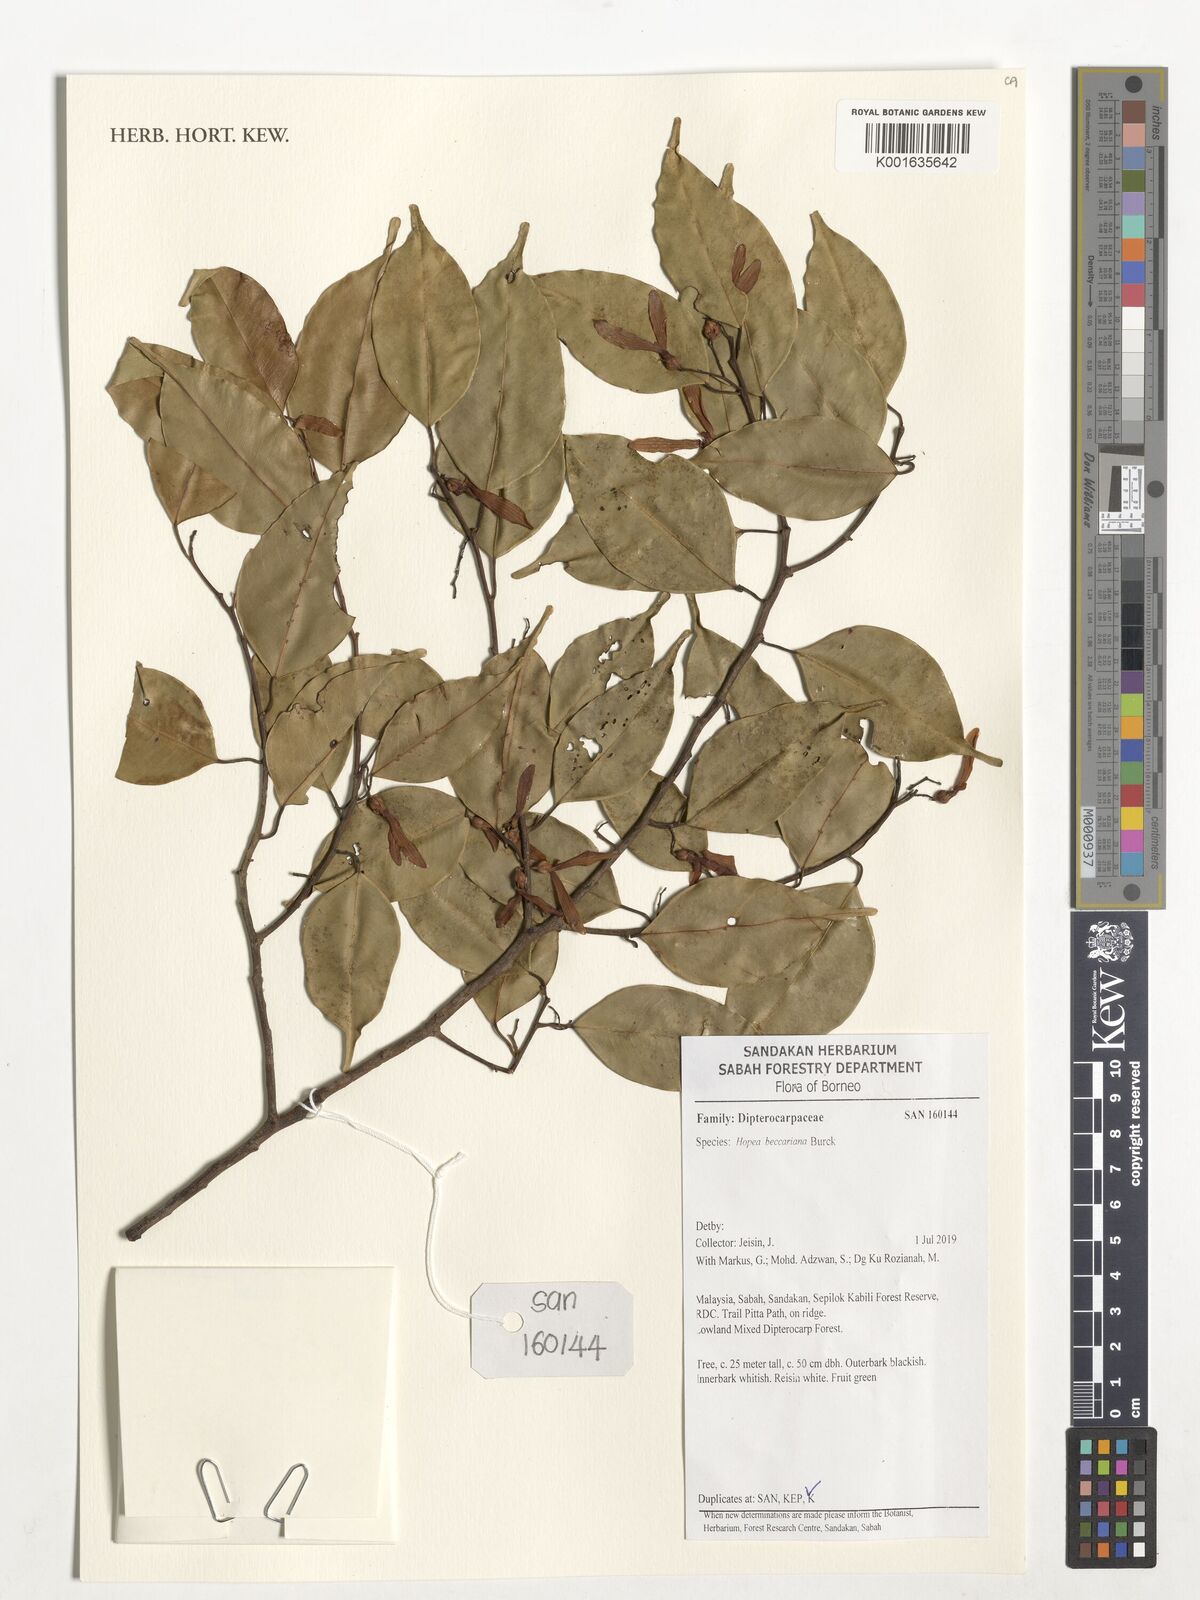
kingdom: Plantae
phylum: Tracheophyta
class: Magnoliopsida
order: Malvales
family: Dipterocarpaceae
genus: Hopea
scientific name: Hopea beccariana
